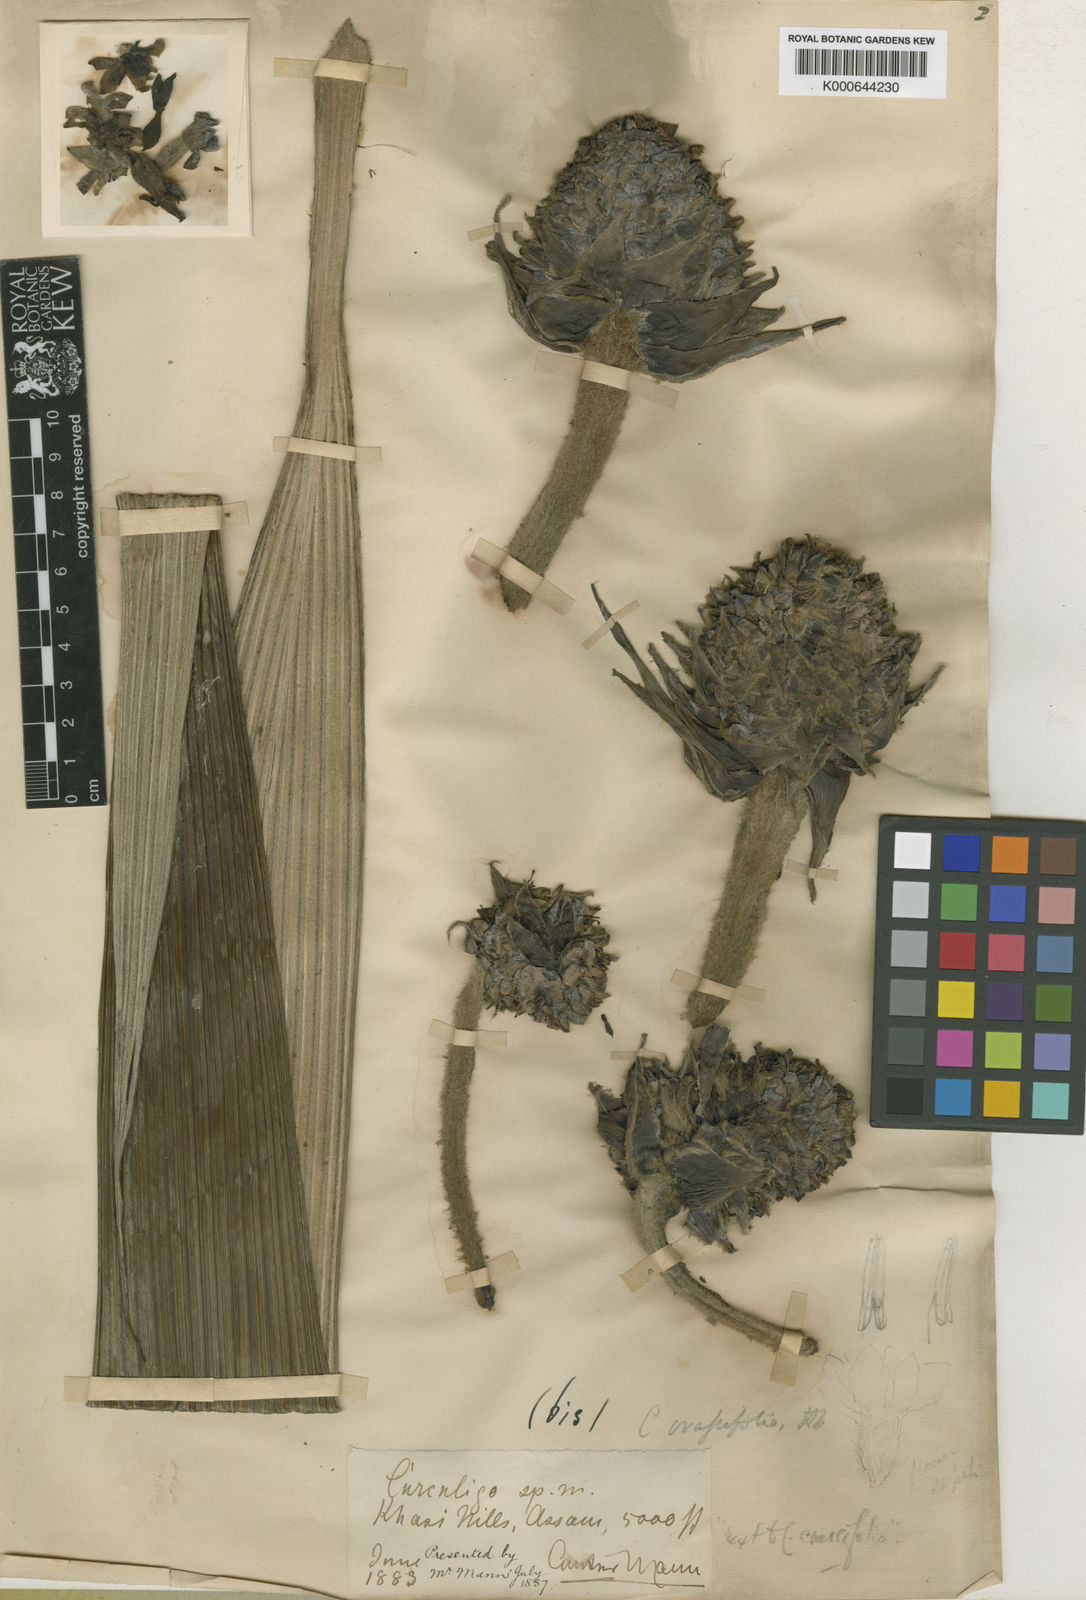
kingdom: Plantae
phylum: Tracheophyta
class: Liliopsida
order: Asparagales
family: Hypoxidaceae
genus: Curculigo
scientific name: Curculigo crassifolia
